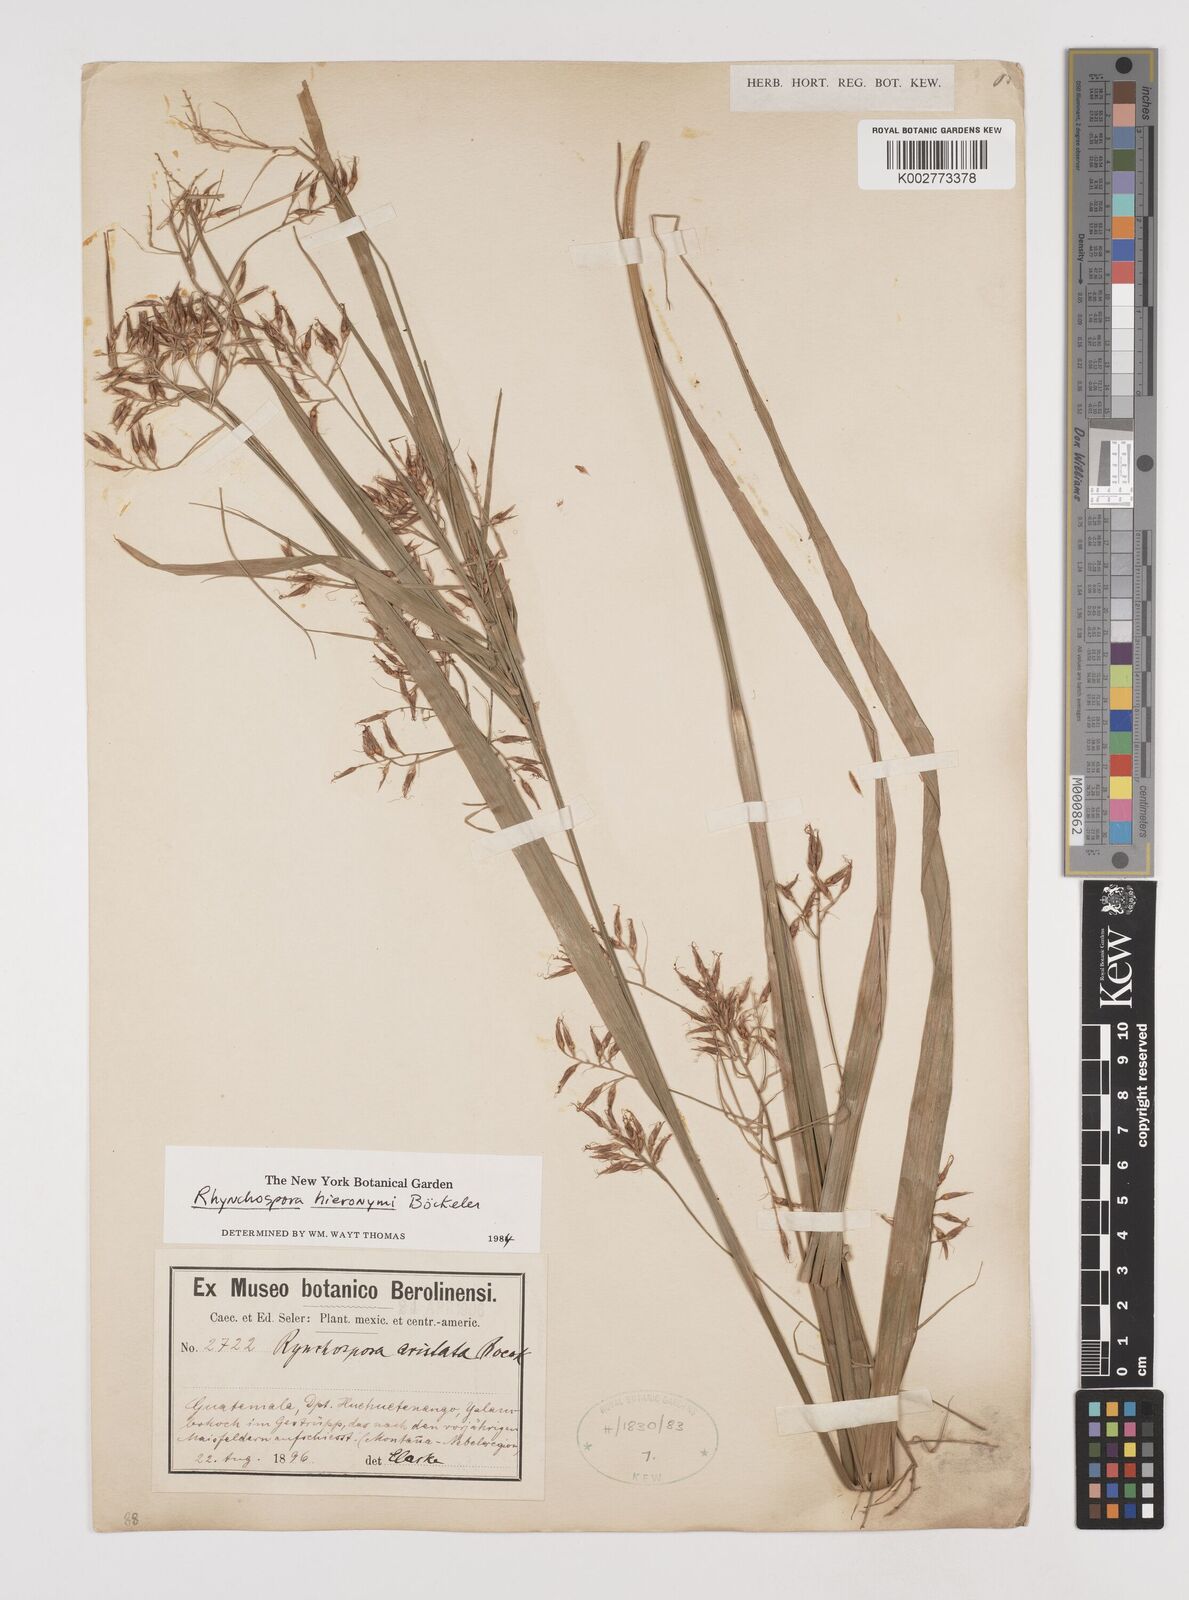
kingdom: Plantae
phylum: Tracheophyta
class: Liliopsida
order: Poales
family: Cyperaceae
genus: Rhynchospora
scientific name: Rhynchospora hieronymi
